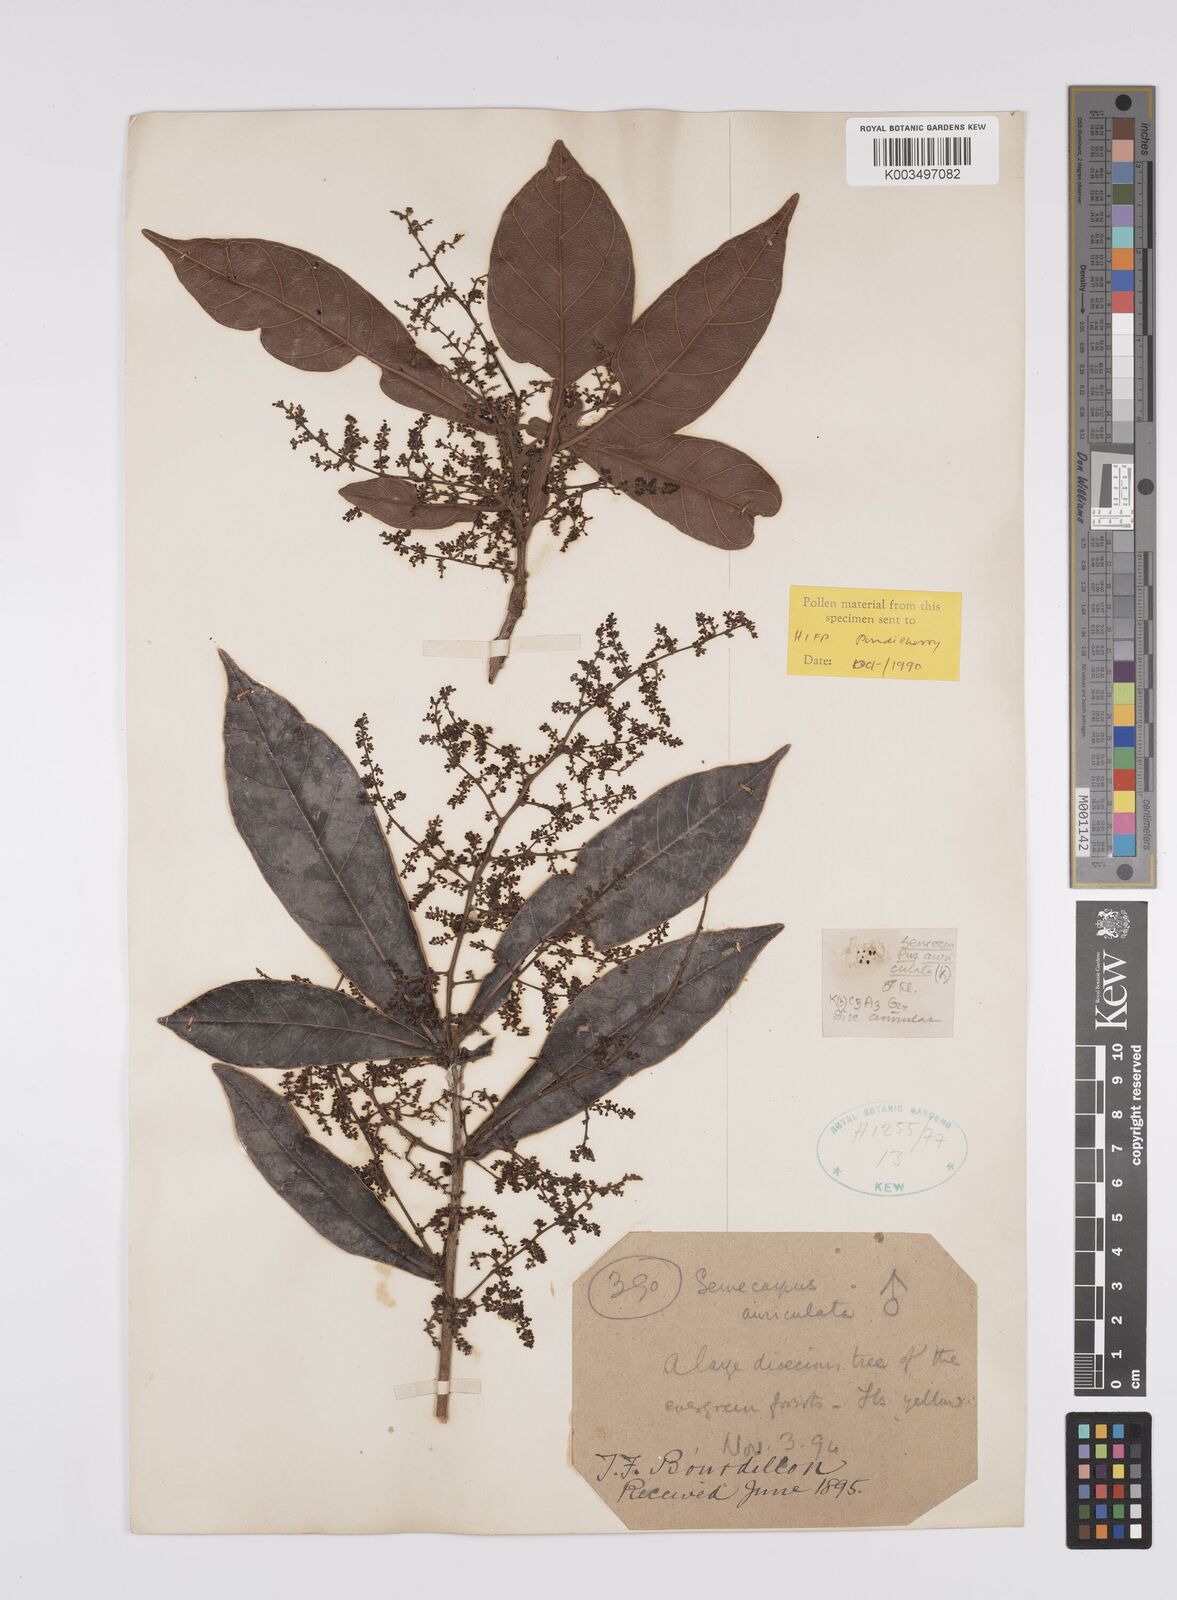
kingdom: Plantae
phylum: Tracheophyta
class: Magnoliopsida
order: Sapindales
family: Anacardiaceae
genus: Semecarpus
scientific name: Semecarpus auriculatus
